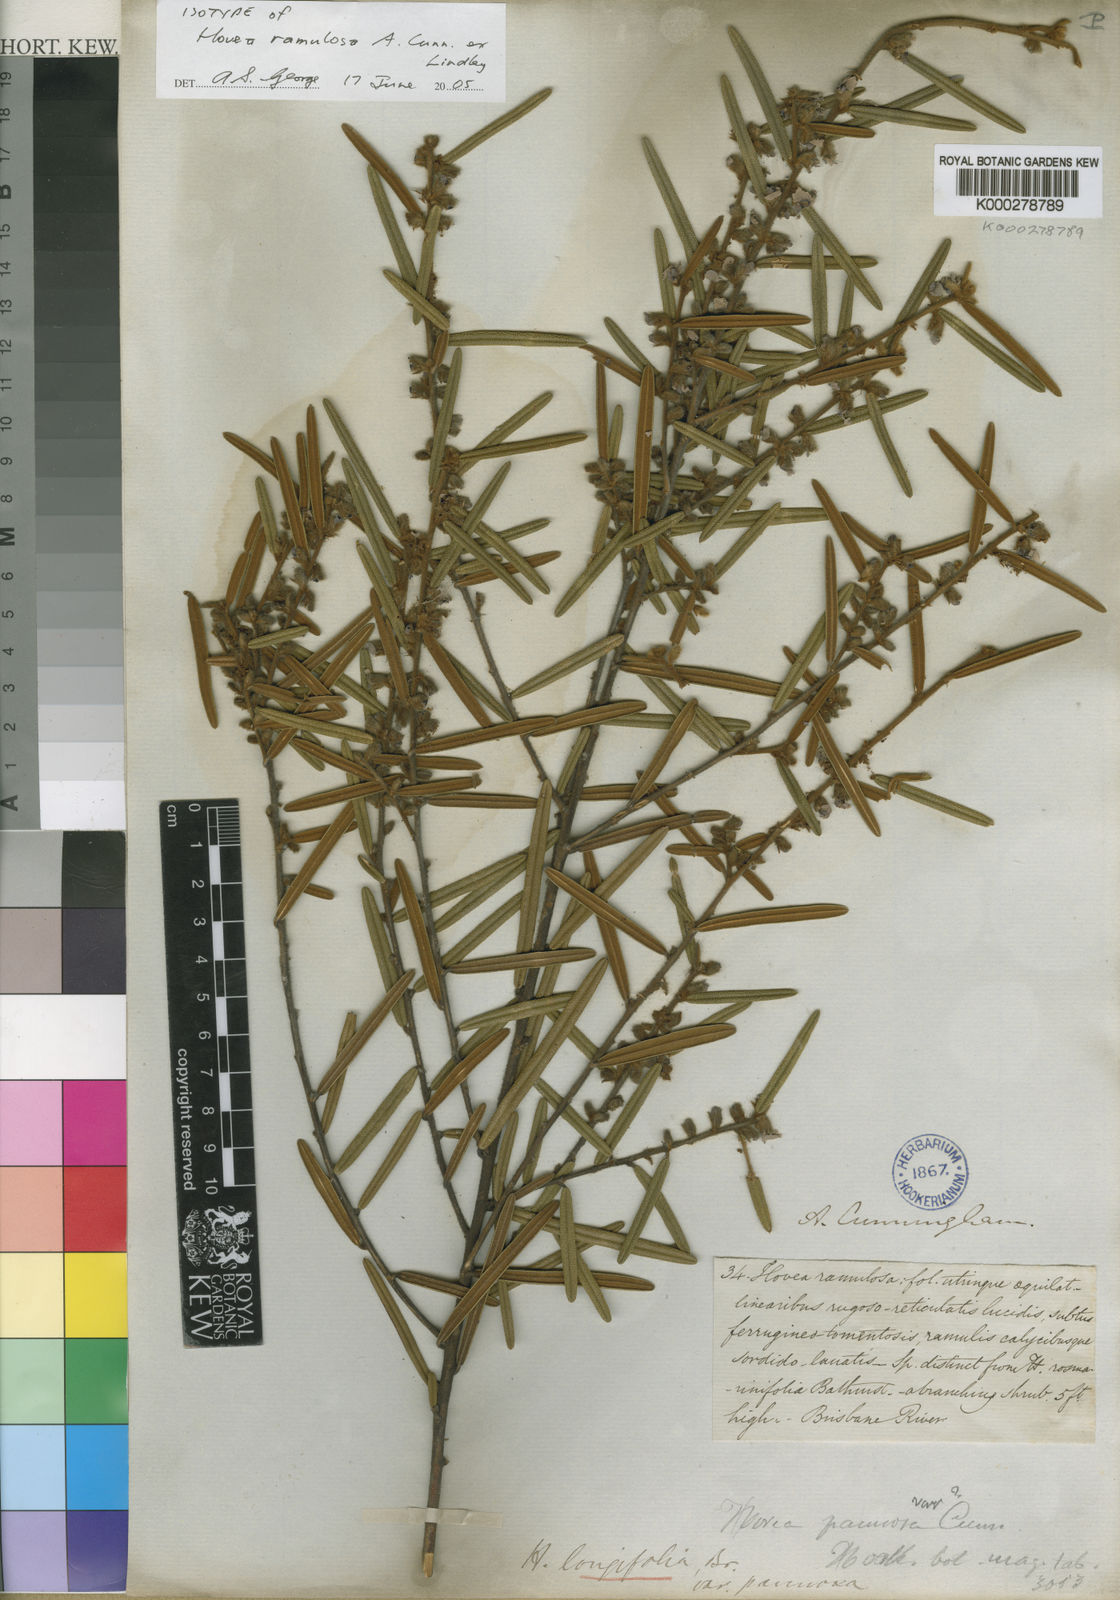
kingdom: Plantae
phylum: Tracheophyta
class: Magnoliopsida
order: Fabales
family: Fabaceae
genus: Hovea
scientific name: Hovea lanceolata
